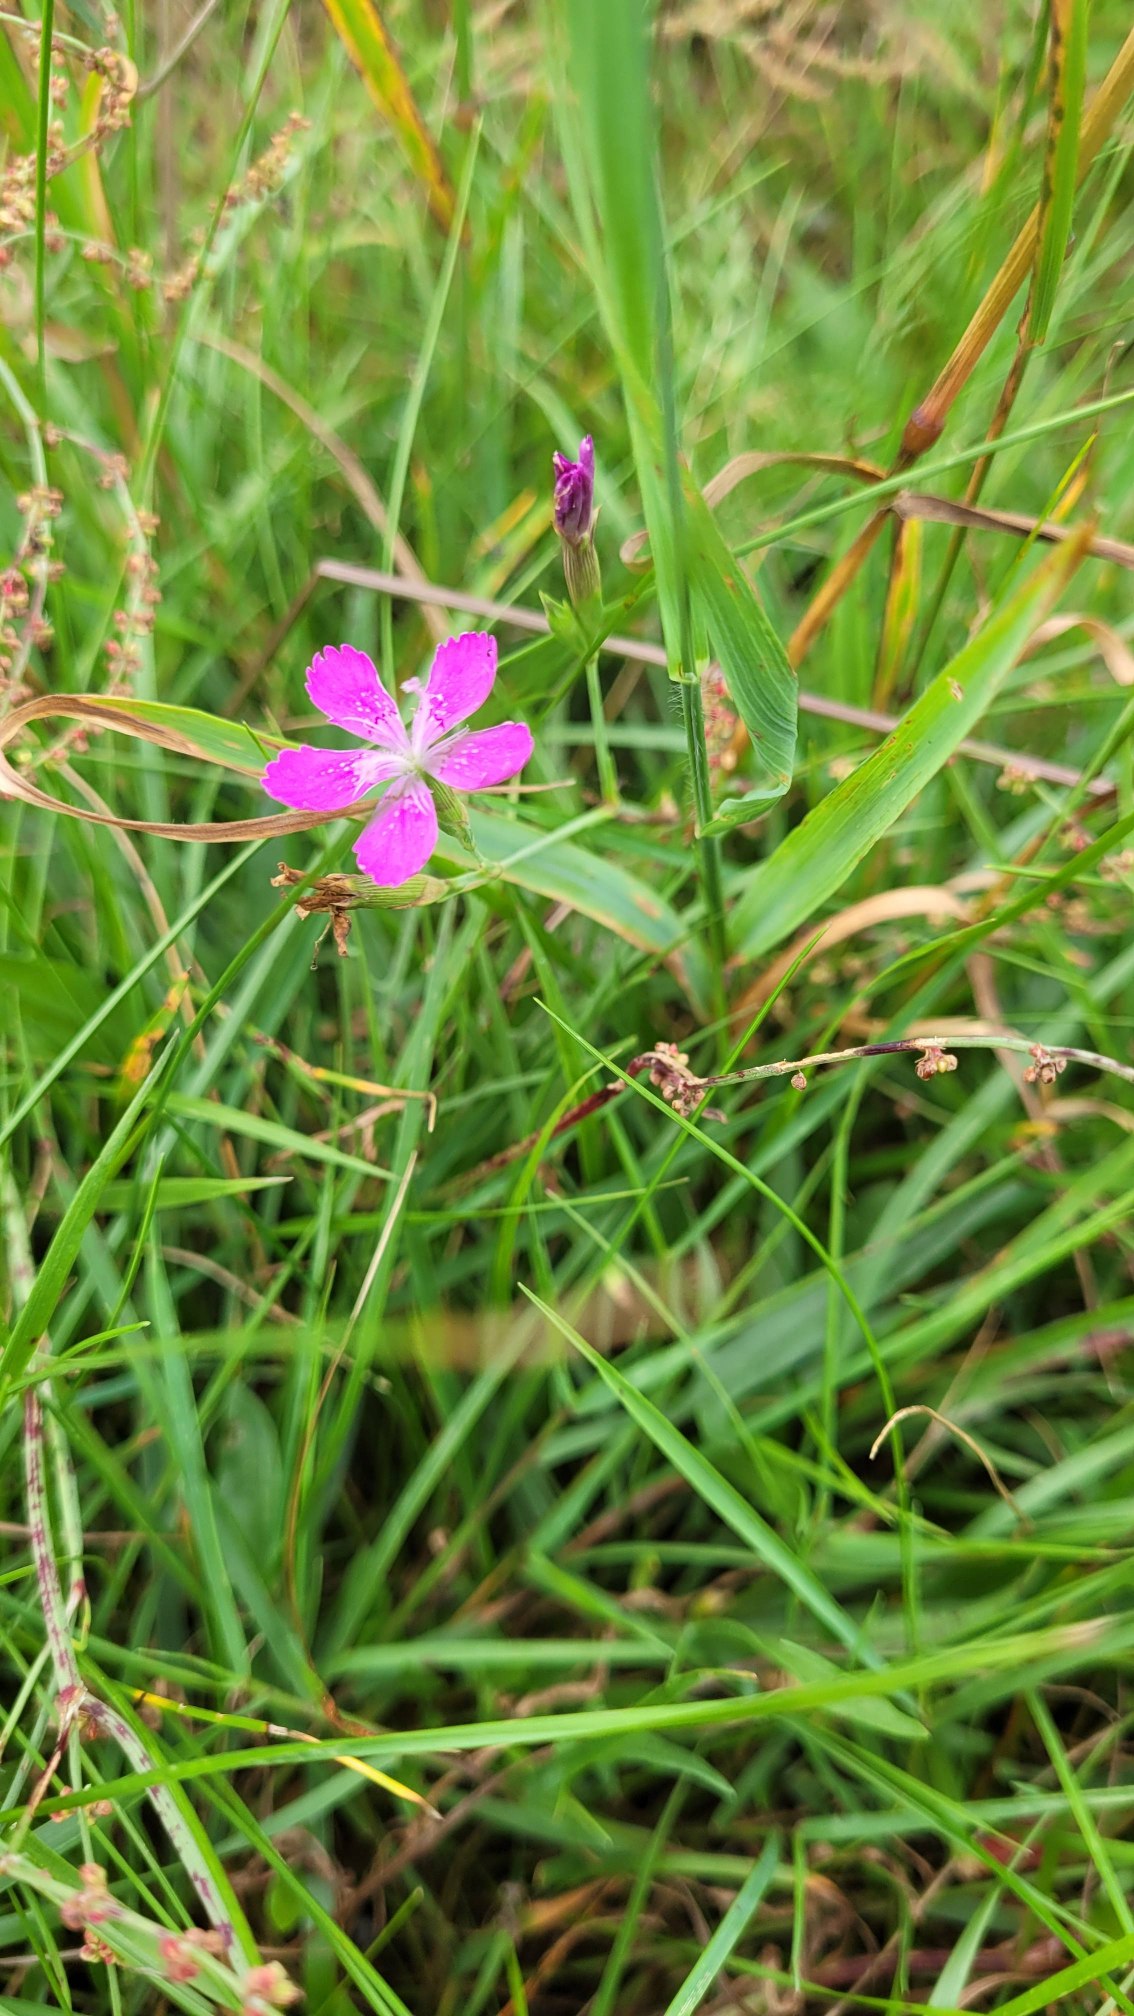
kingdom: Plantae
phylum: Tracheophyta
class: Magnoliopsida
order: Caryophyllales
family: Caryophyllaceae
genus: Dianthus
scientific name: Dianthus deltoides
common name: Bakke-nellike
